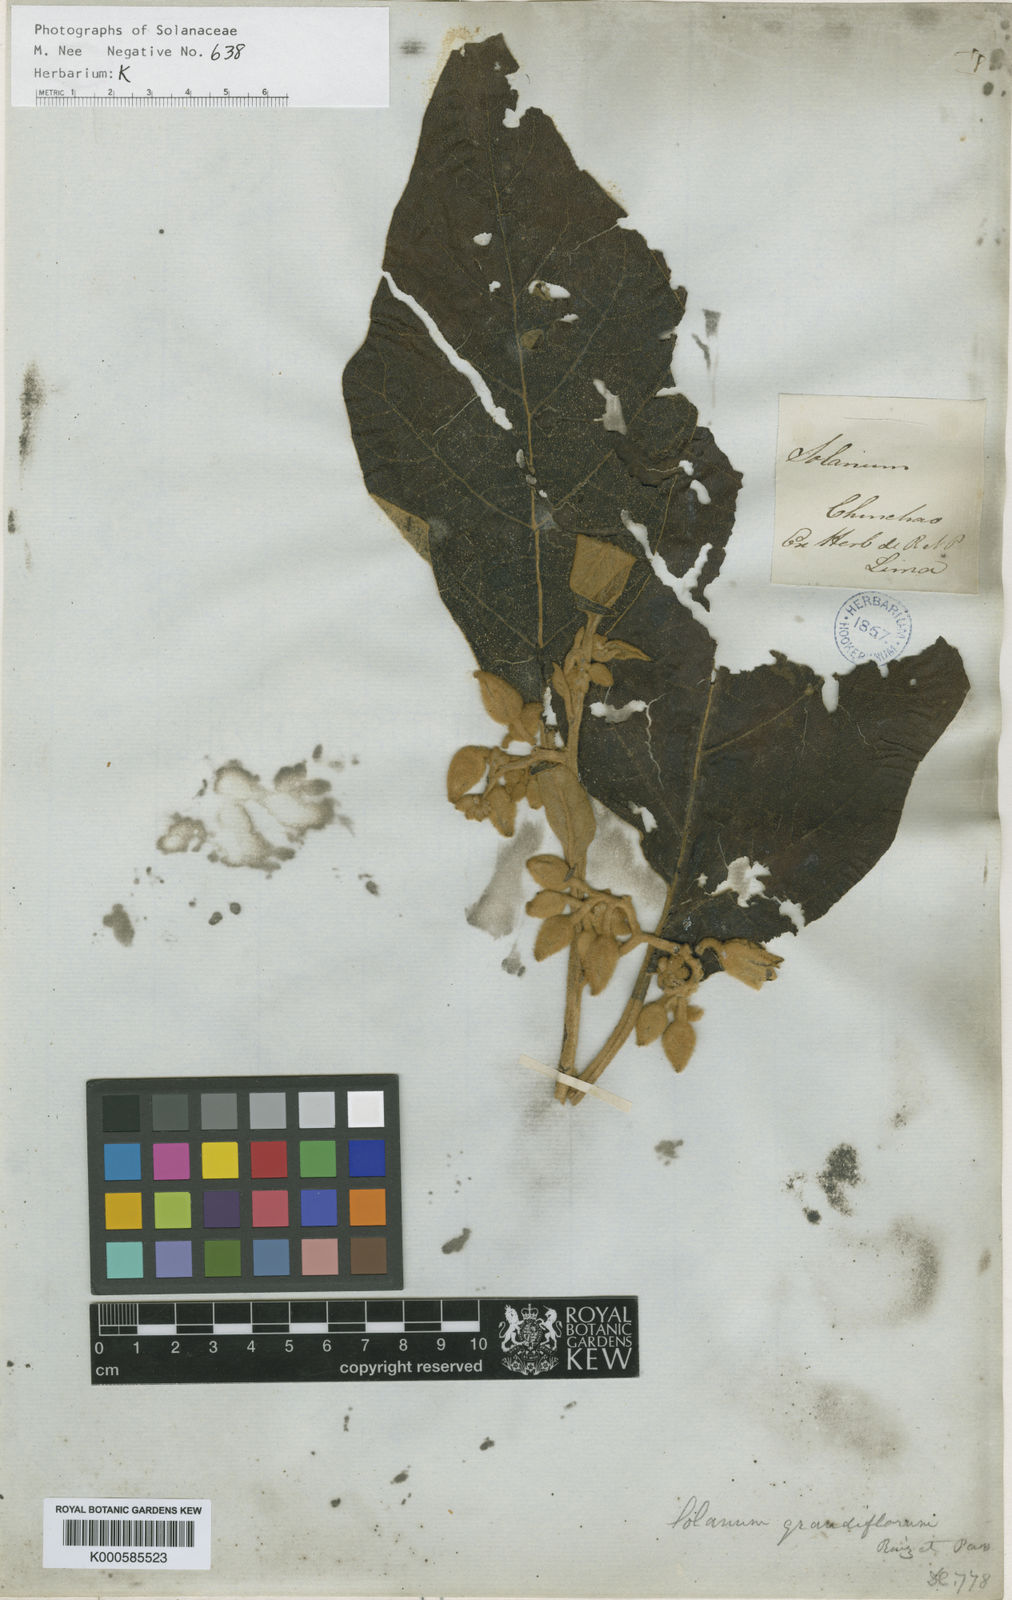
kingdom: Plantae
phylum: Tracheophyta
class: Magnoliopsida
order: Solanales
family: Solanaceae
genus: Solanum
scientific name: Solanum grandiflorum
